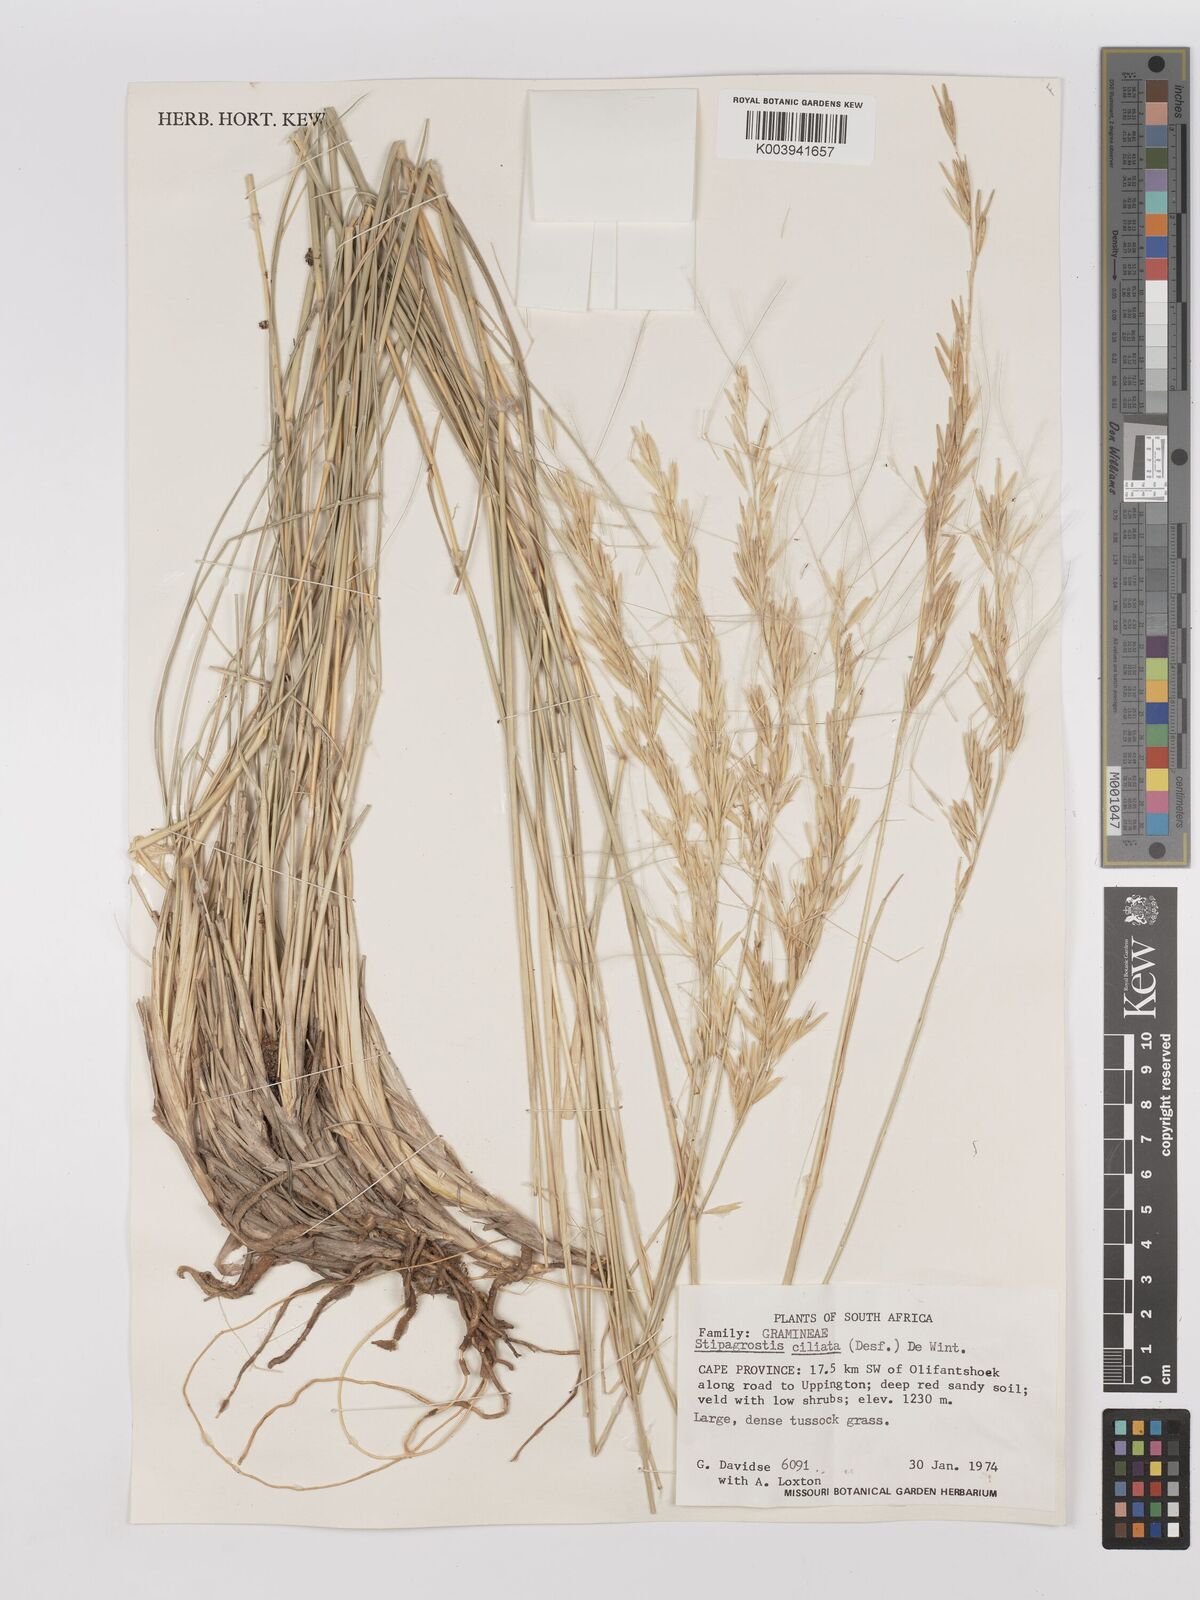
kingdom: Plantae
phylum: Tracheophyta
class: Liliopsida
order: Poales
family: Poaceae
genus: Stipagrostis
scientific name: Stipagrostis ciliata
